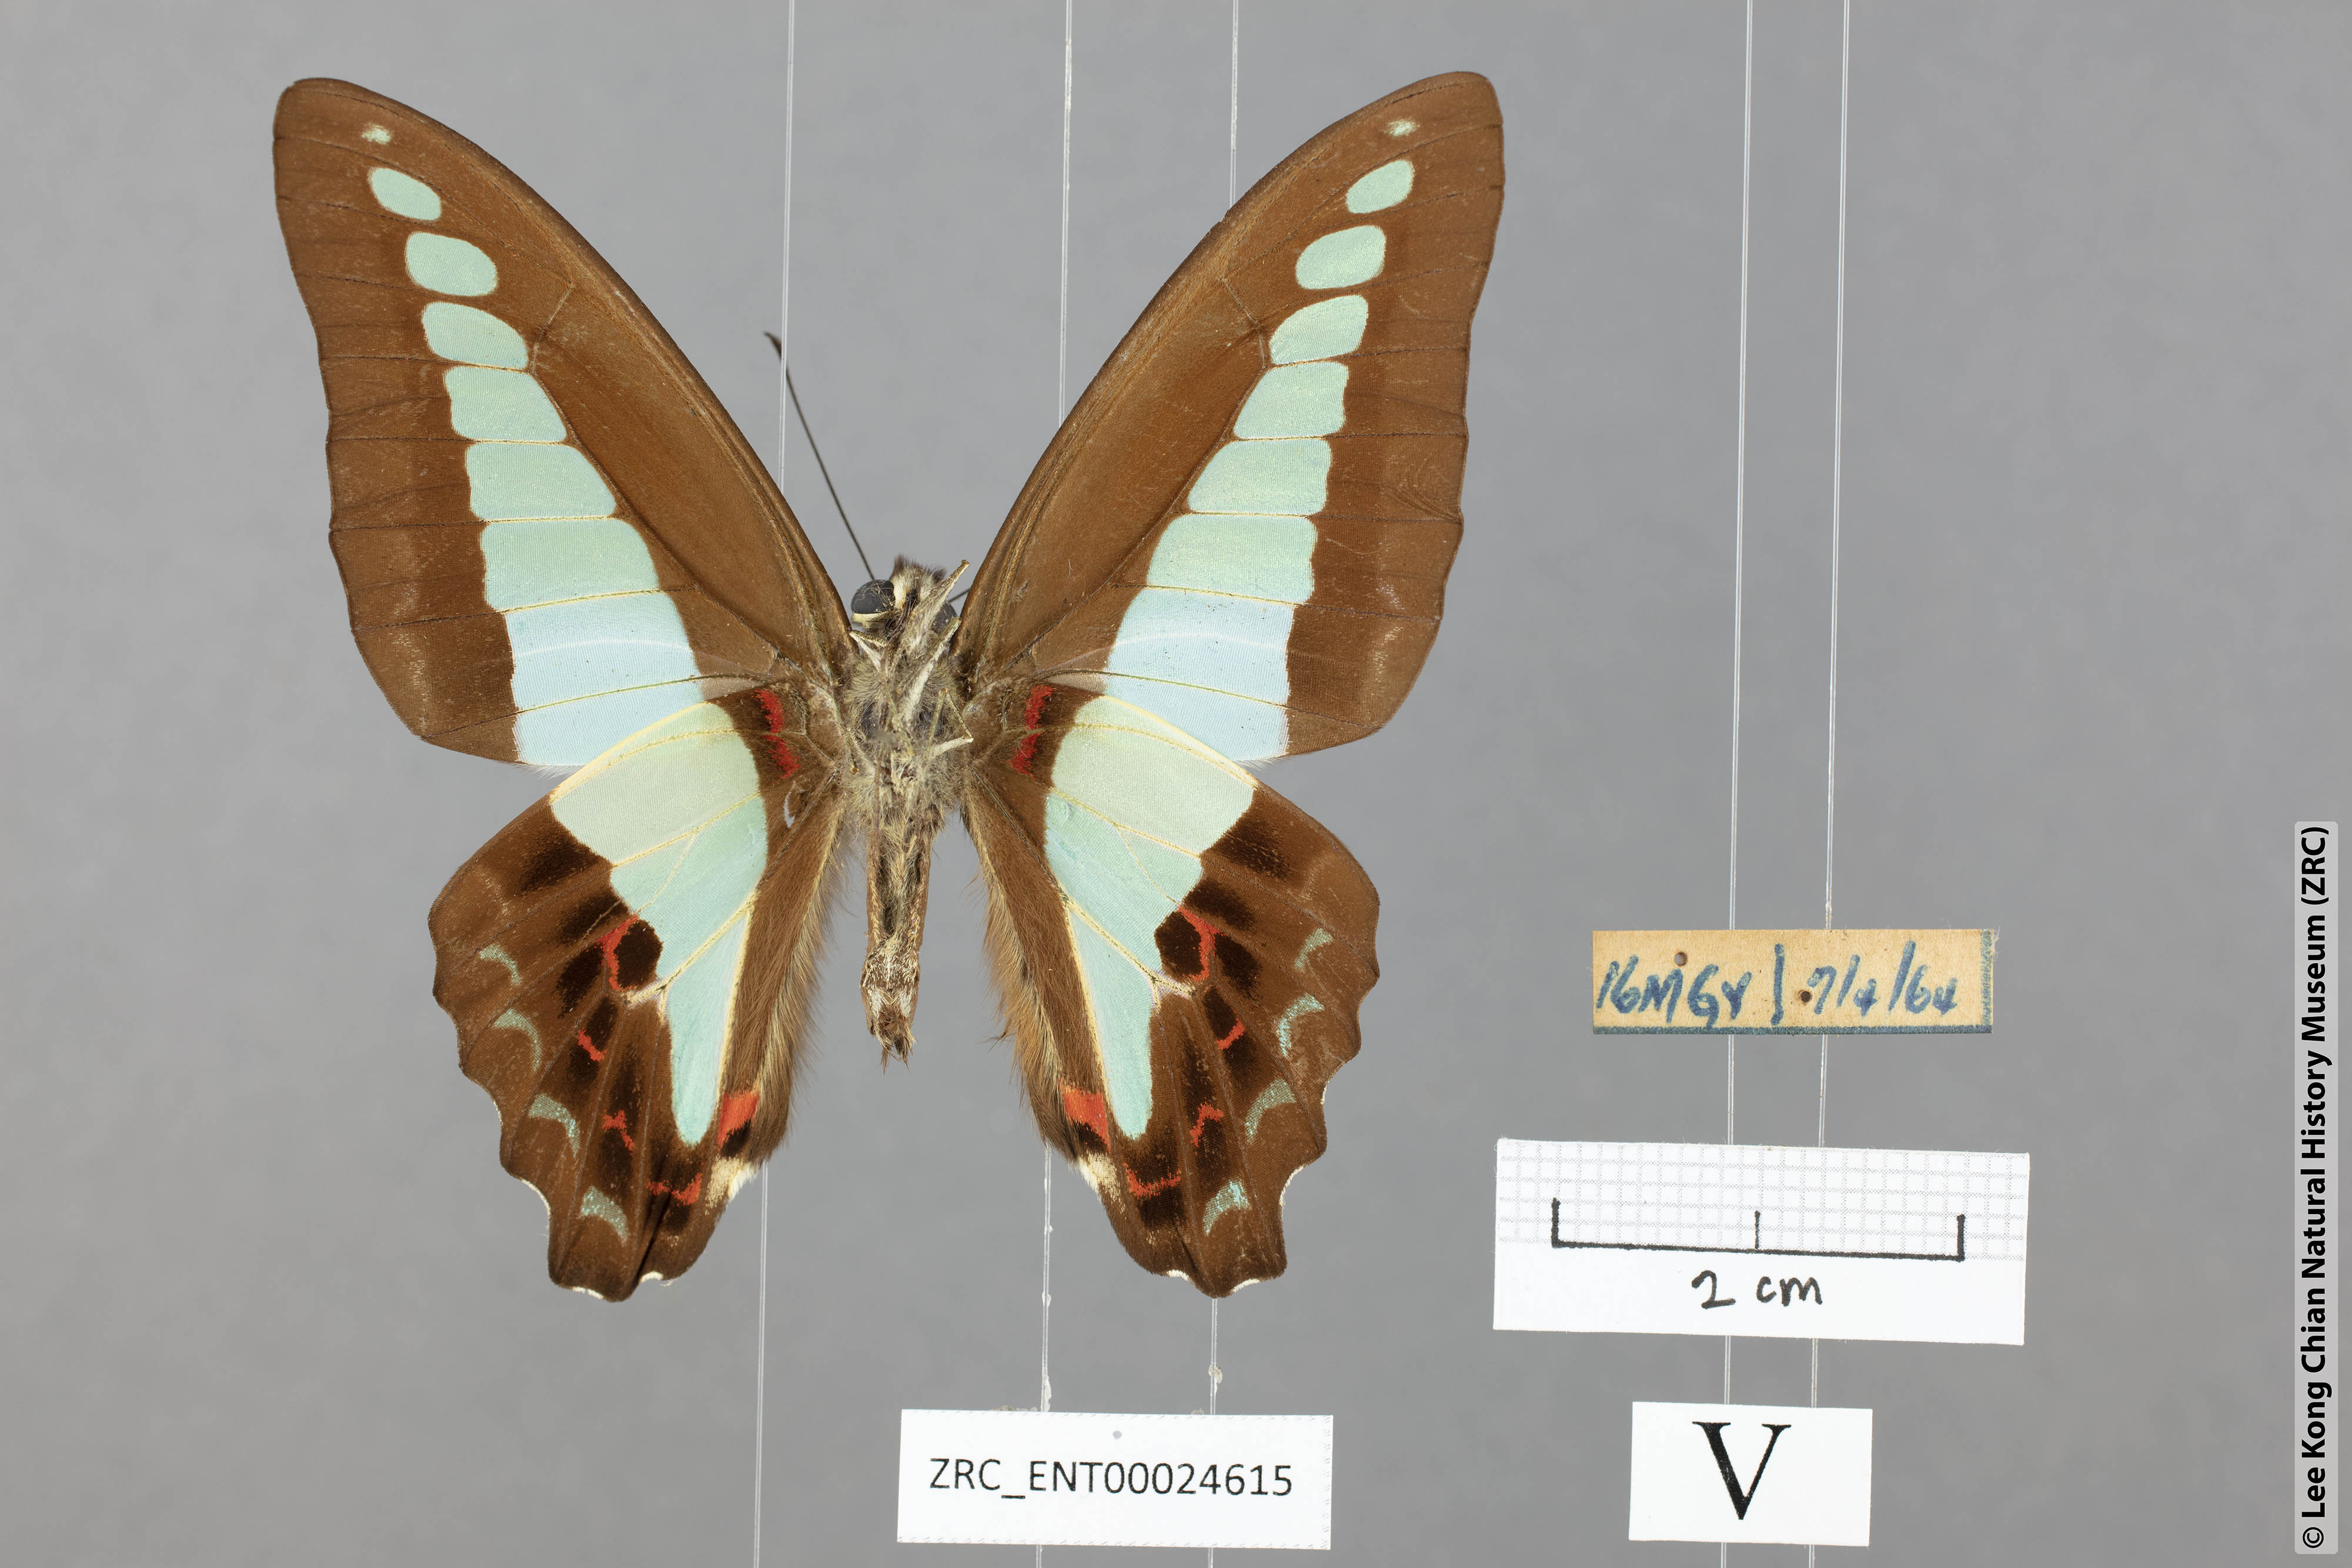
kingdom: Fungi
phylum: Ascomycota
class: Sordariomycetes
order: Microascales
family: Microascaceae
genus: Graphium
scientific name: Graphium sarpedon
